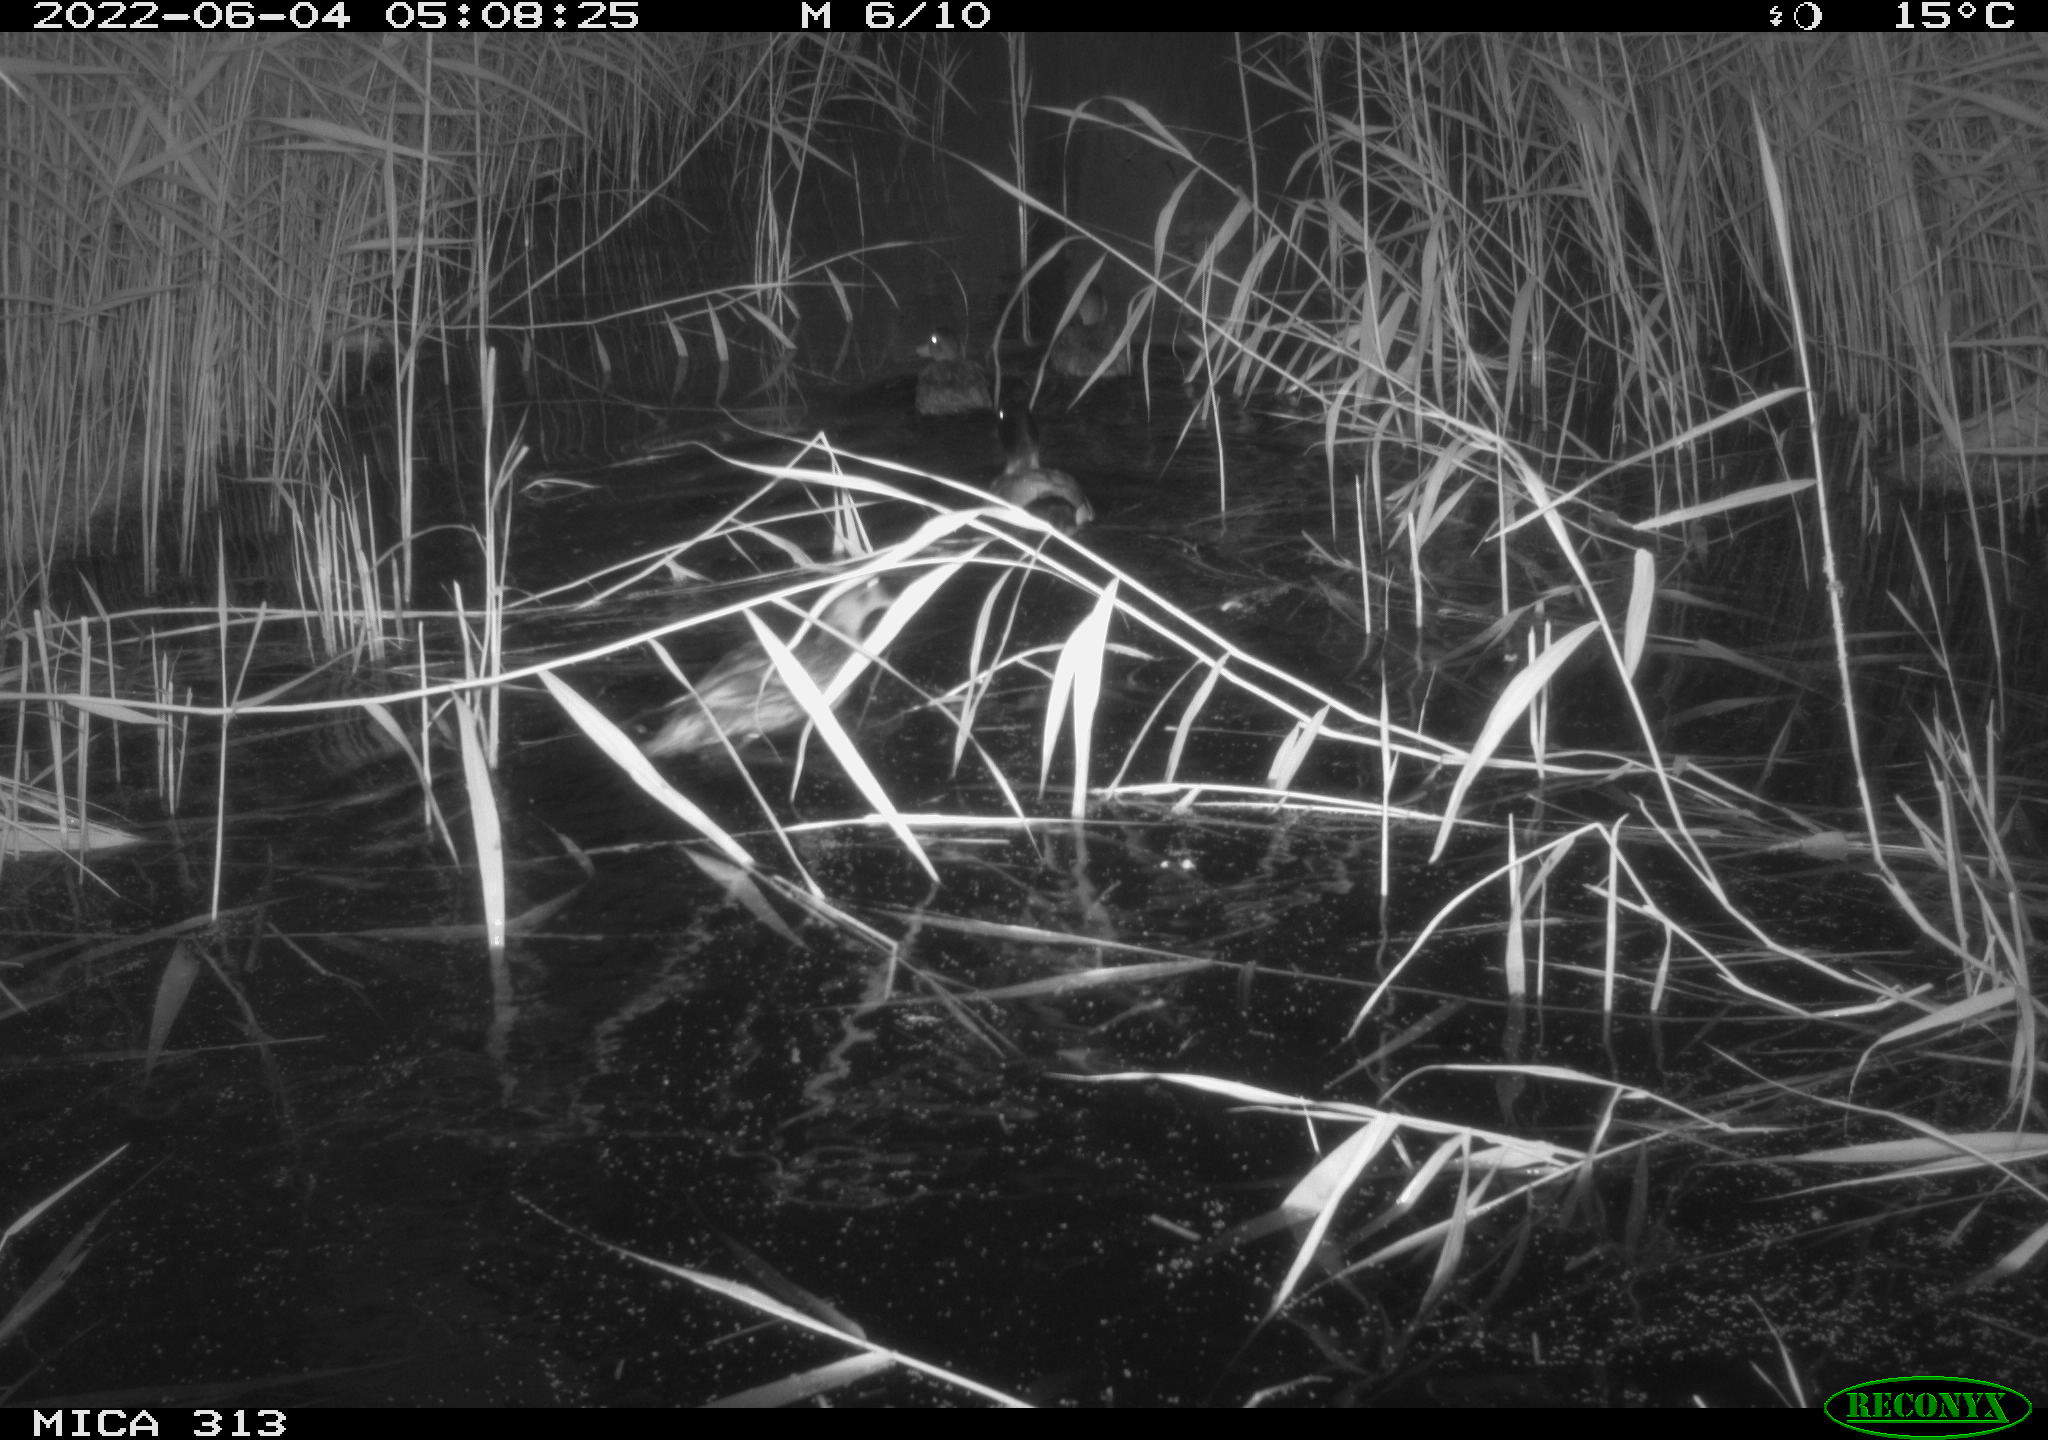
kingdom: Animalia
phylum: Chordata
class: Aves
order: Anseriformes
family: Anatidae
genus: Anas
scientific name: Anas platyrhynchos
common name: Mallard
